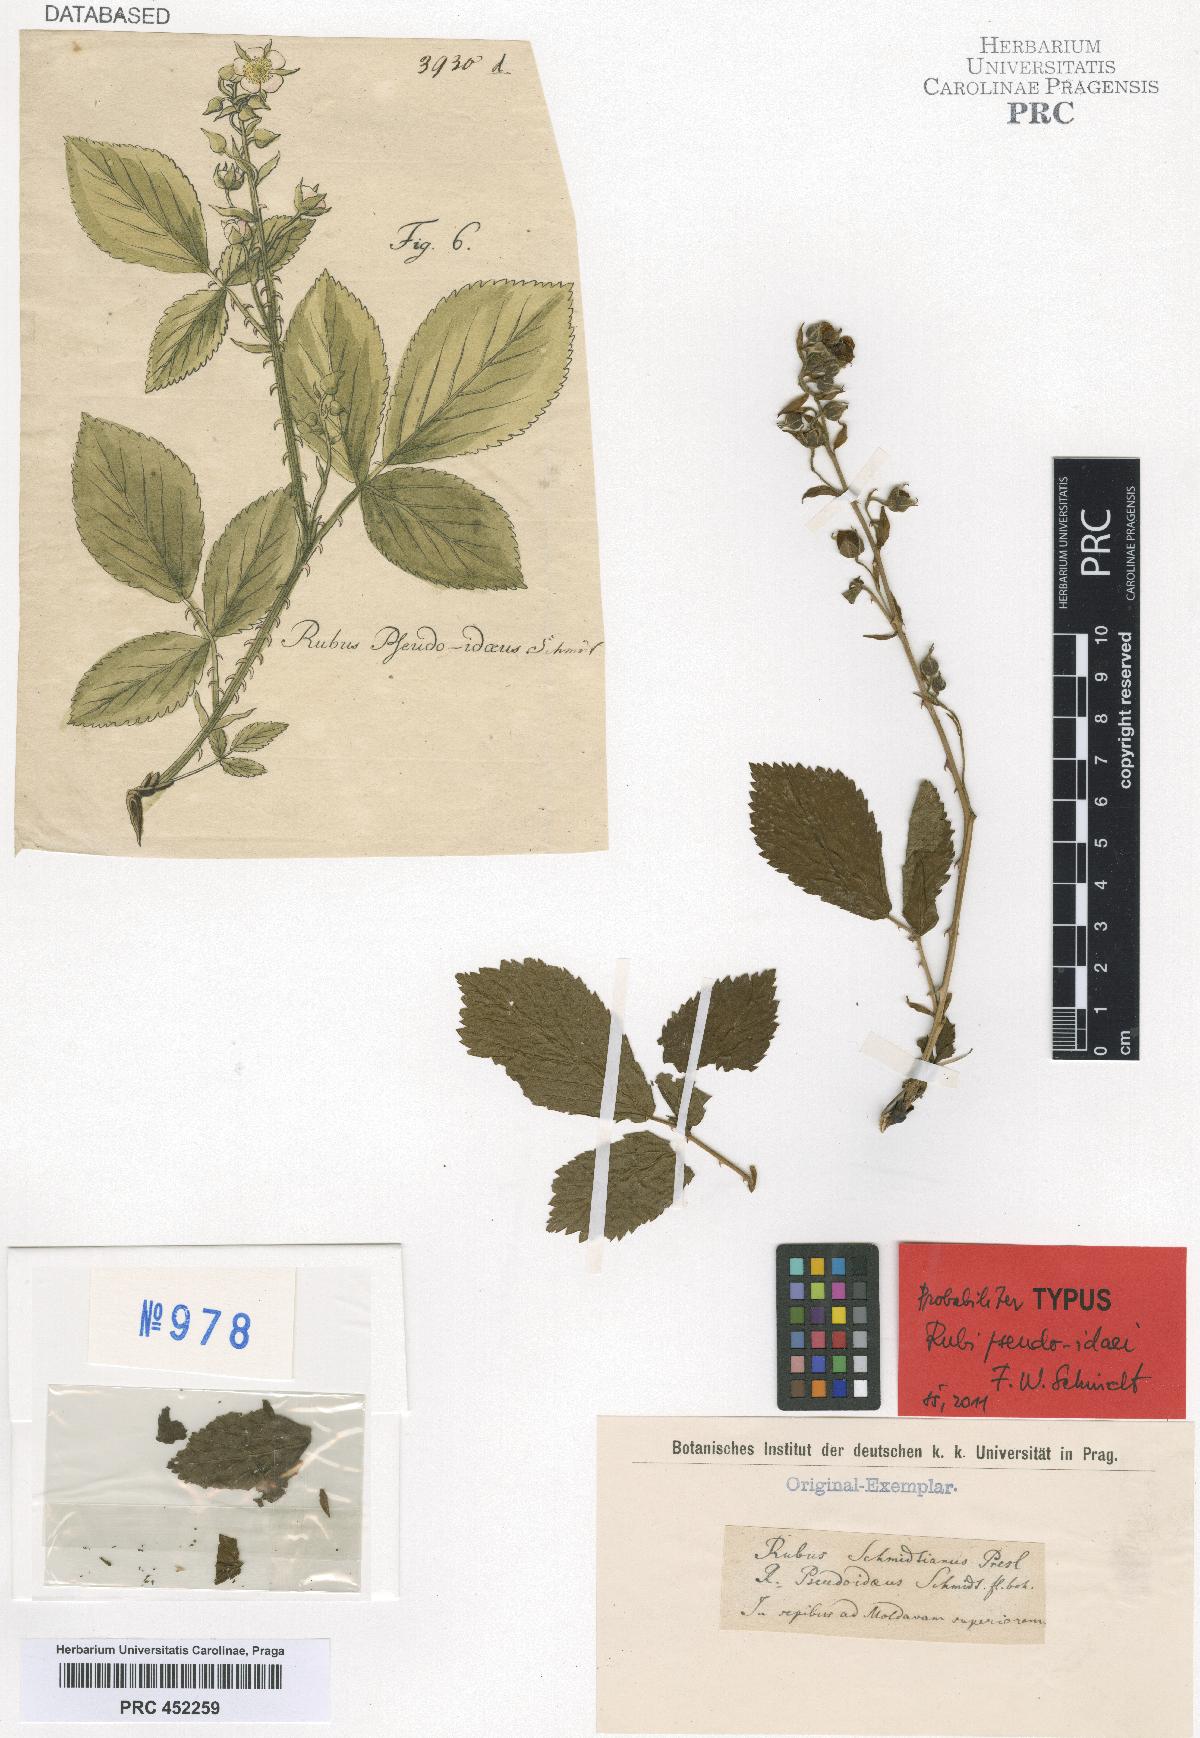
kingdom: Plantae
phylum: Tracheophyta
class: Magnoliopsida
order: Rosales
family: Rosaceae
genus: Rubus
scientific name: Rubus sulcatus
